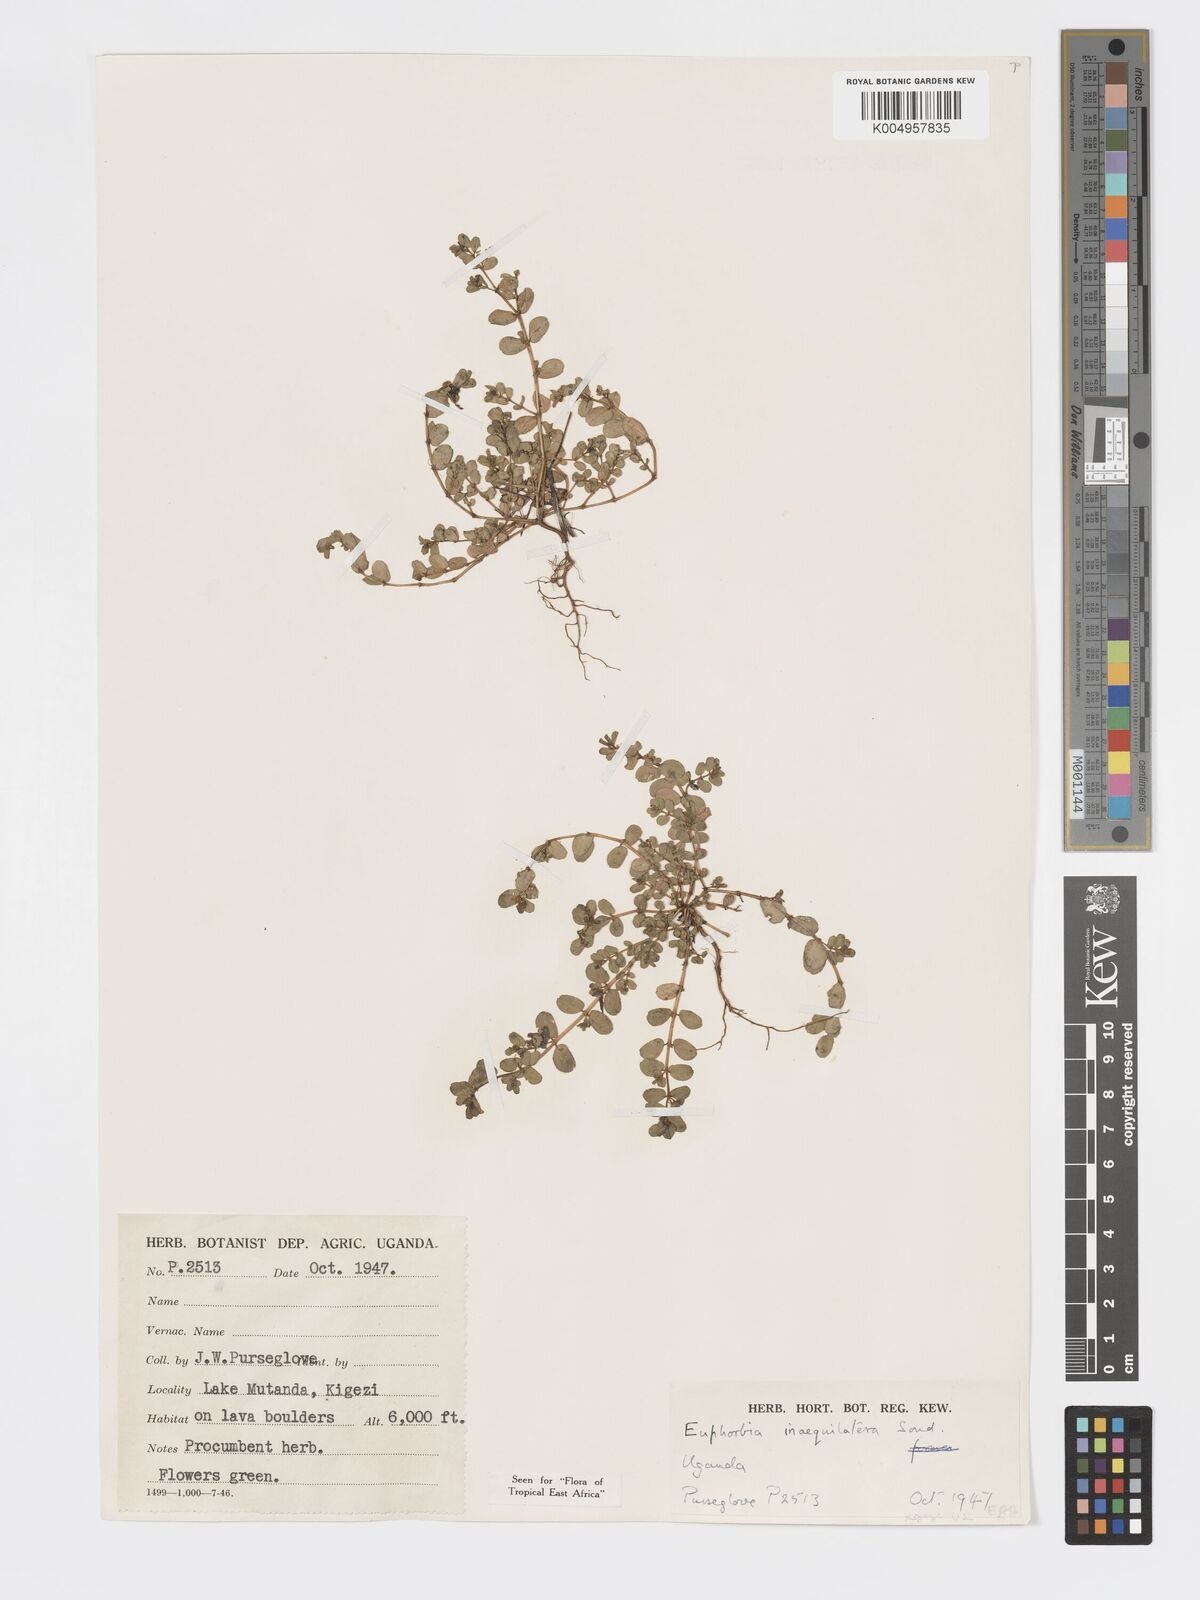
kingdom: Plantae
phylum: Tracheophyta
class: Magnoliopsida
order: Malpighiales
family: Euphorbiaceae
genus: Euphorbia
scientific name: Euphorbia inaequilatera
